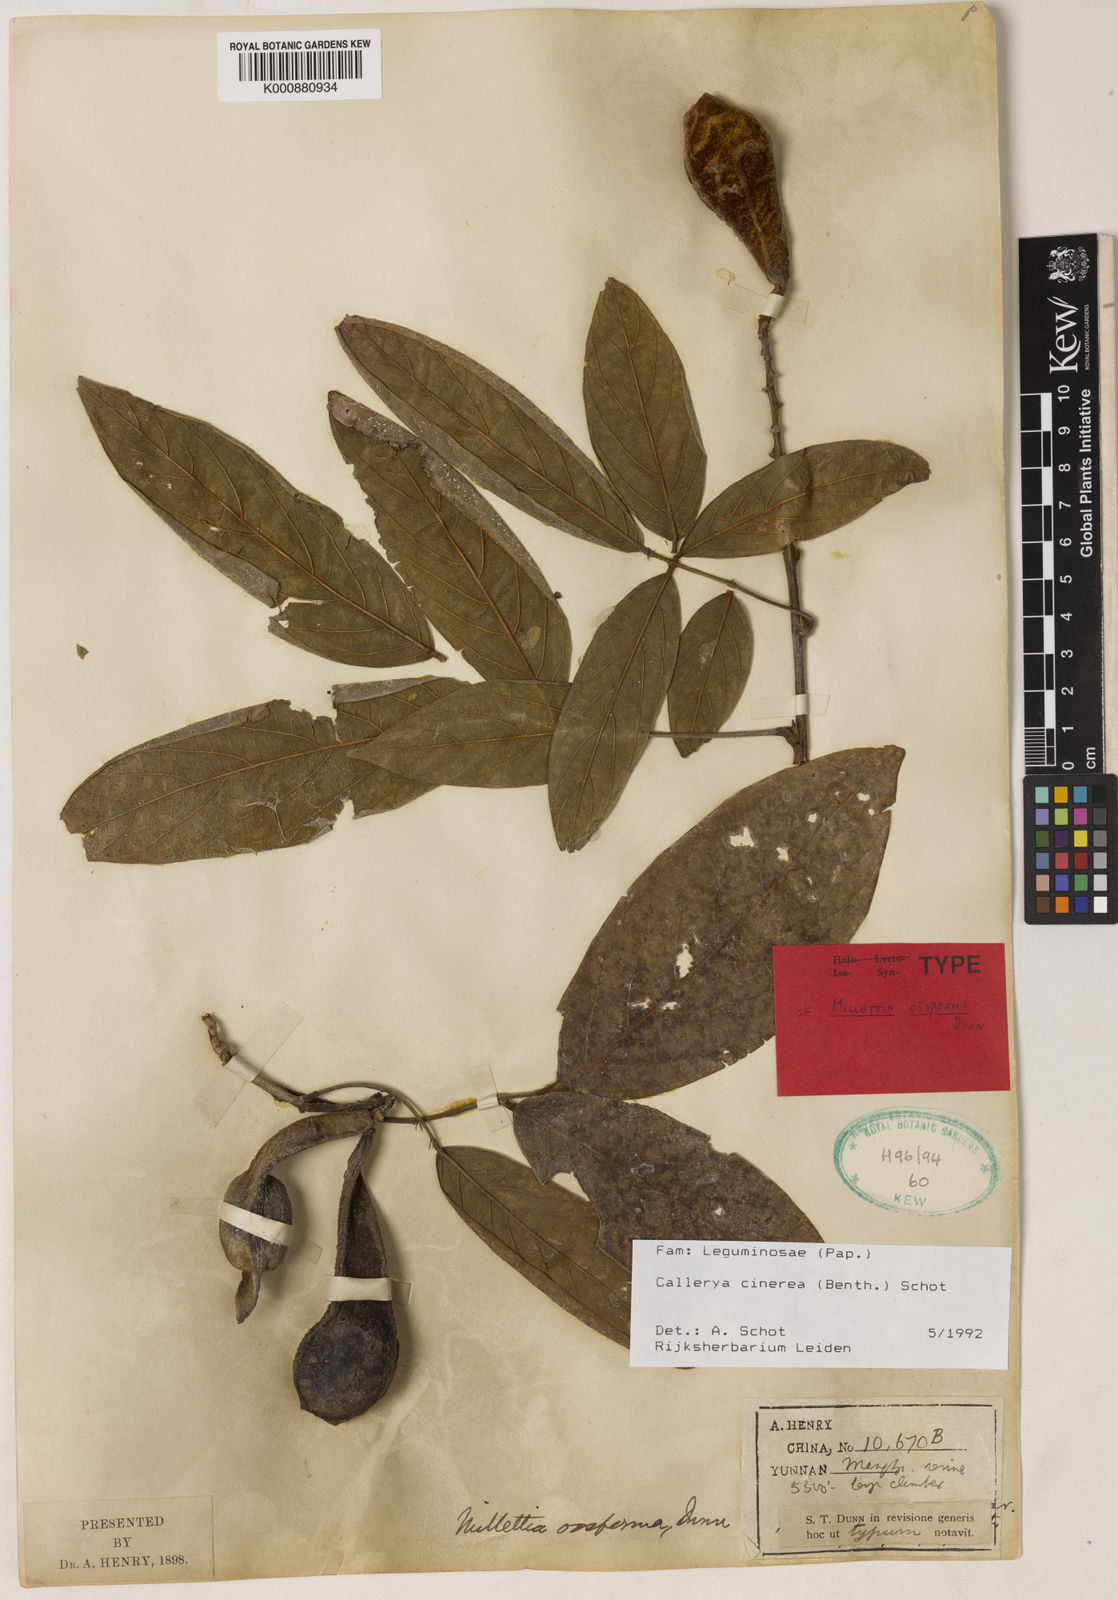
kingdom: Plantae
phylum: Tracheophyta
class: Magnoliopsida
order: Fabales
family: Fabaceae
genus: Callerya
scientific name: Callerya cinerea
